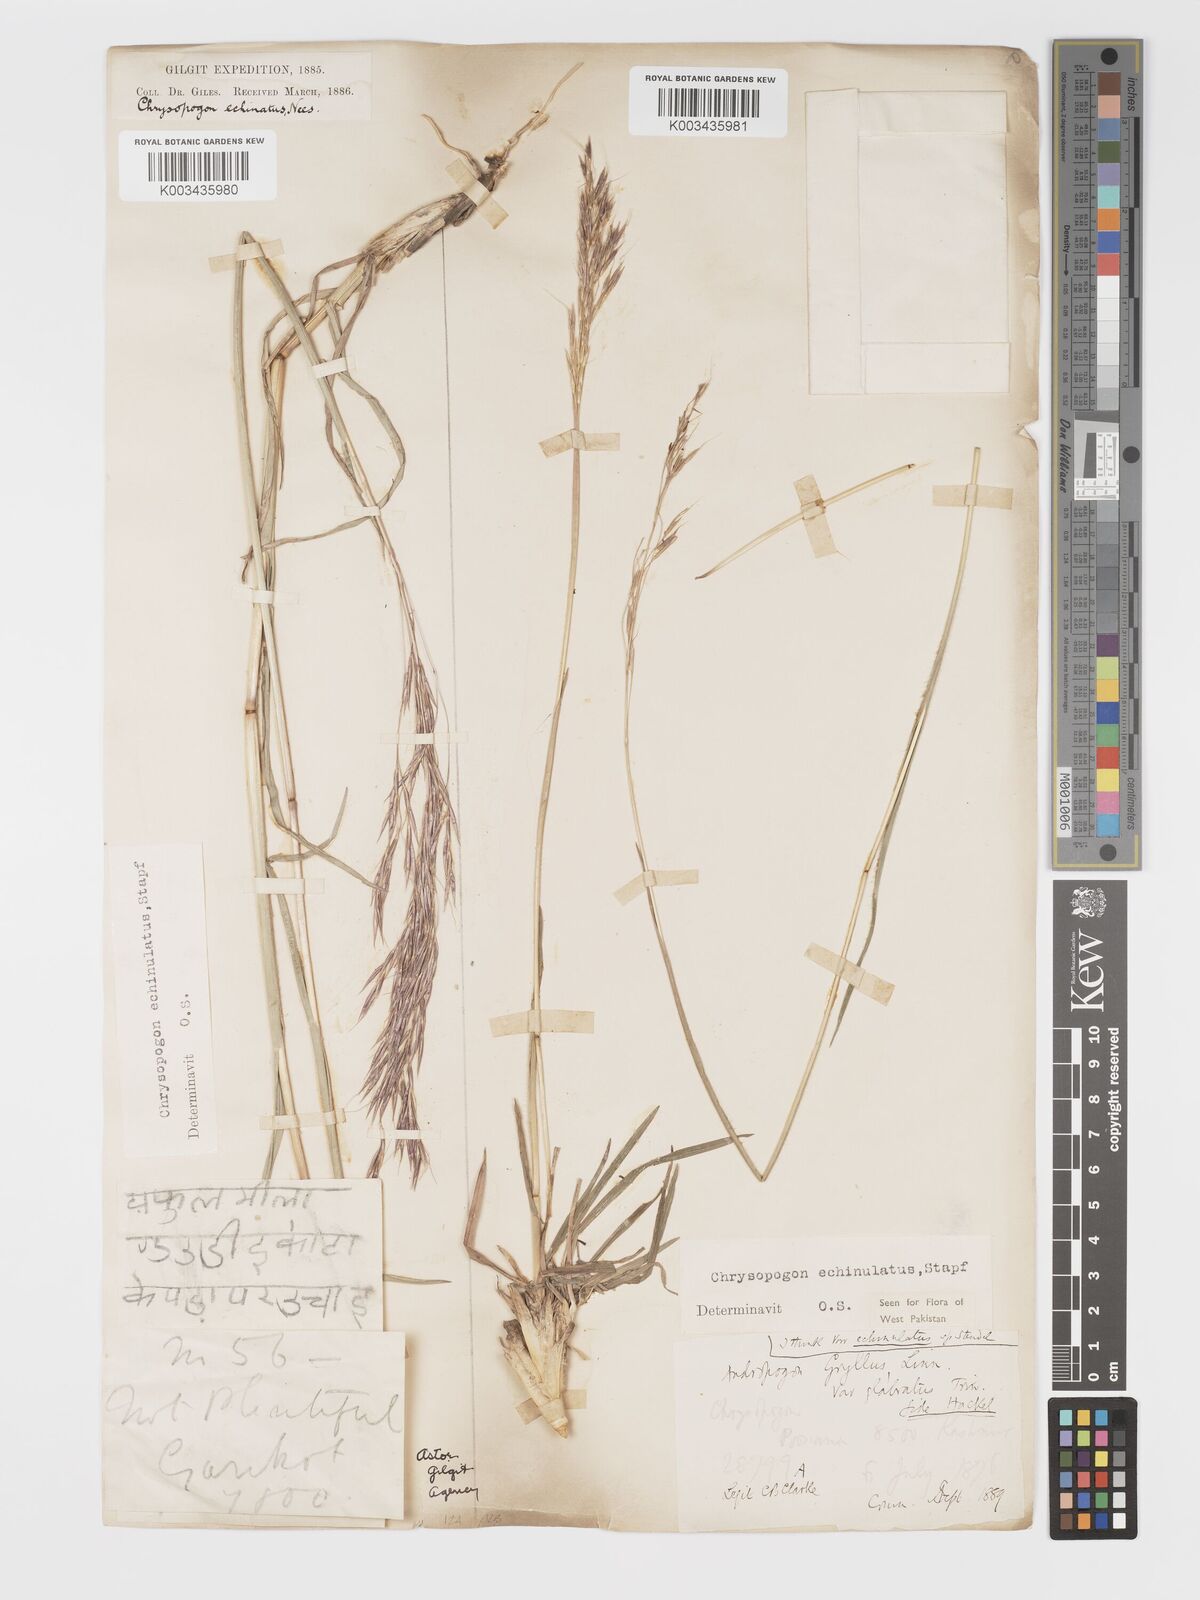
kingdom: Plantae
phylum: Tracheophyta
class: Liliopsida
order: Poales
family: Poaceae
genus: Chrysopogon
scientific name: Chrysopogon gryllus
